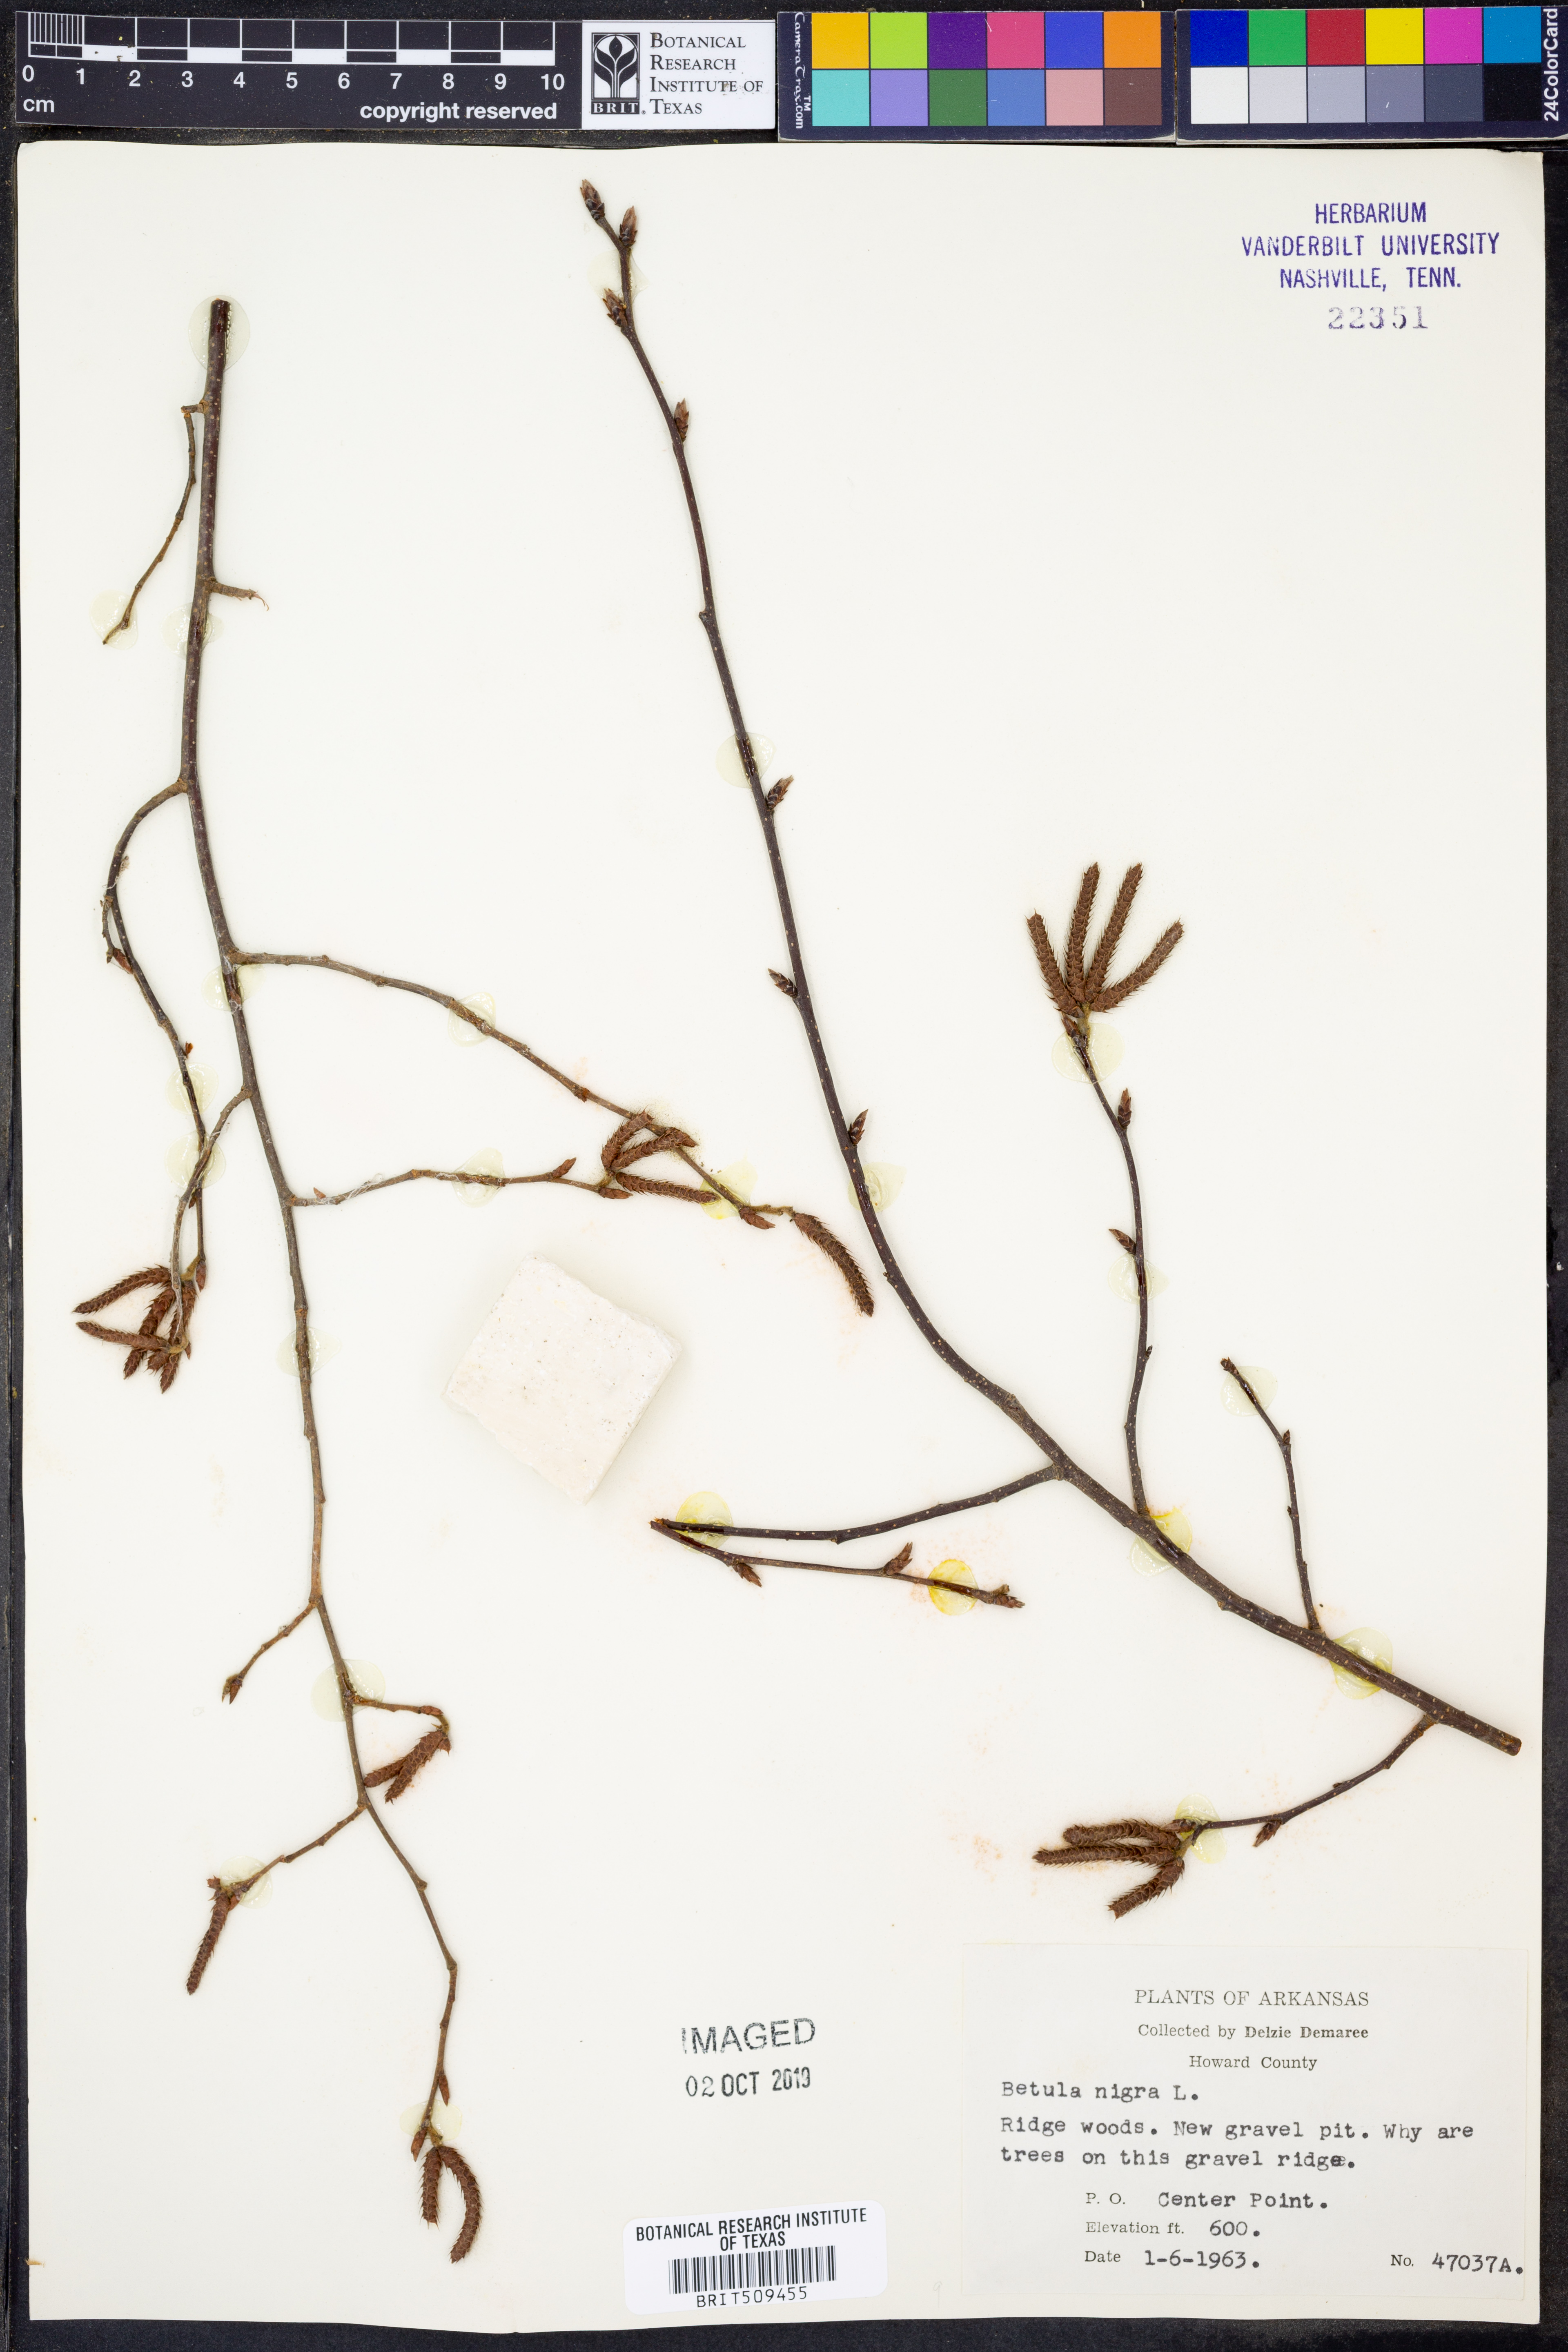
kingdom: Plantae
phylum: Tracheophyta
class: Magnoliopsida
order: Fagales
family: Betulaceae
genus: Betula
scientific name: Betula nigra
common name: Black birch
